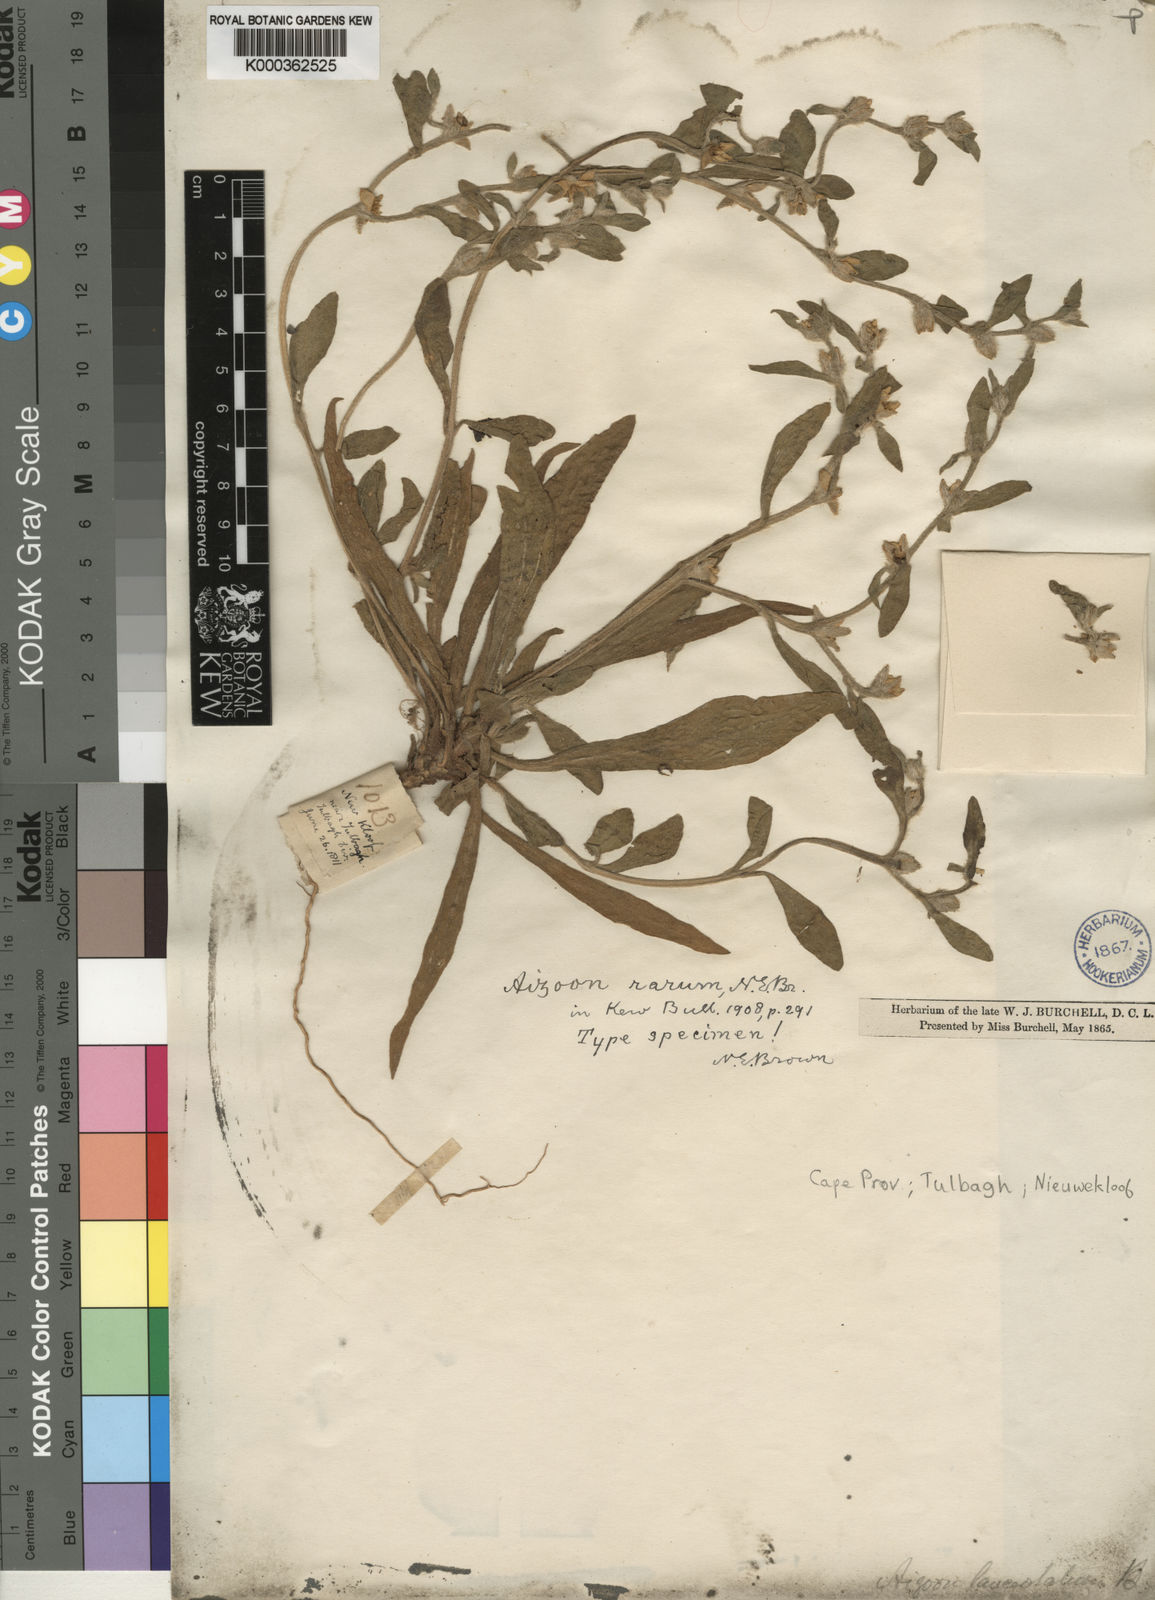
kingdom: Plantae
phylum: Tracheophyta
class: Magnoliopsida
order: Caryophyllales
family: Aizoaceae
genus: Aizoon
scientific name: Aizoon paniculatum
